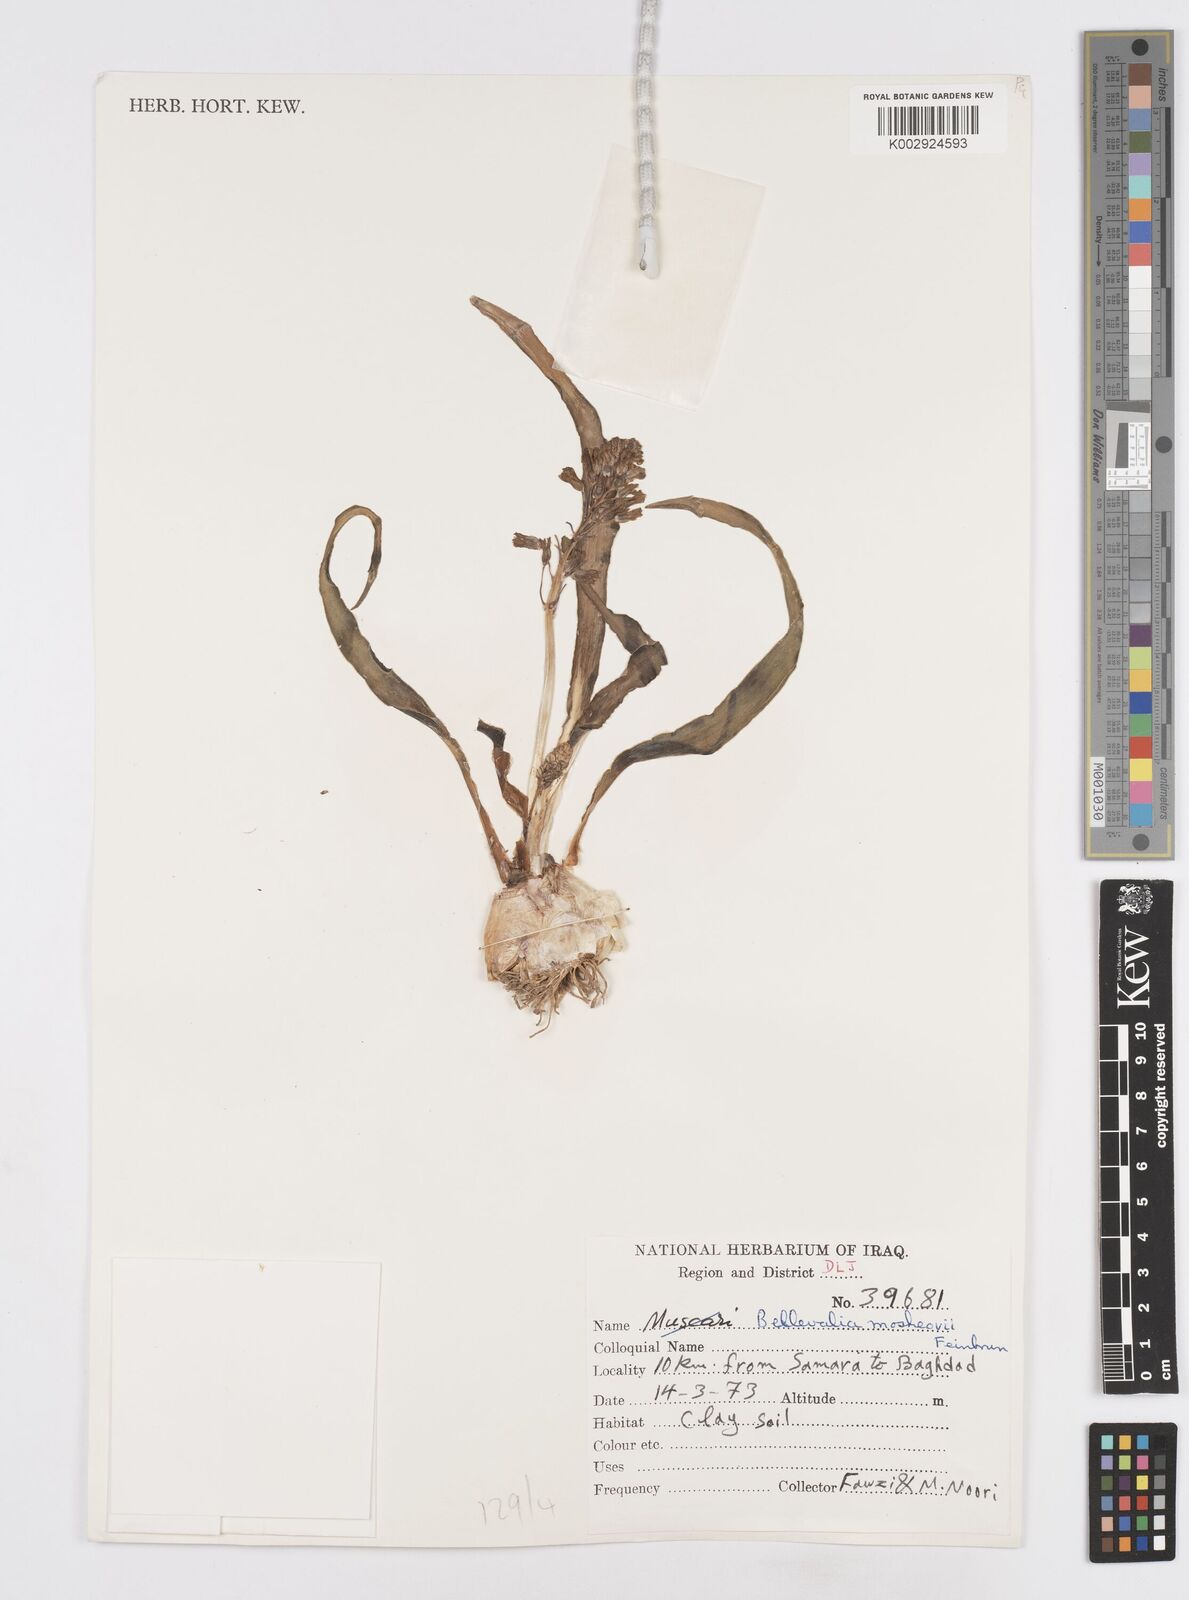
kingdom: Plantae
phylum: Tracheophyta
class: Liliopsida
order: Asparagales
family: Asparagaceae
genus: Bellevalia
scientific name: Bellevalia mosheovii
